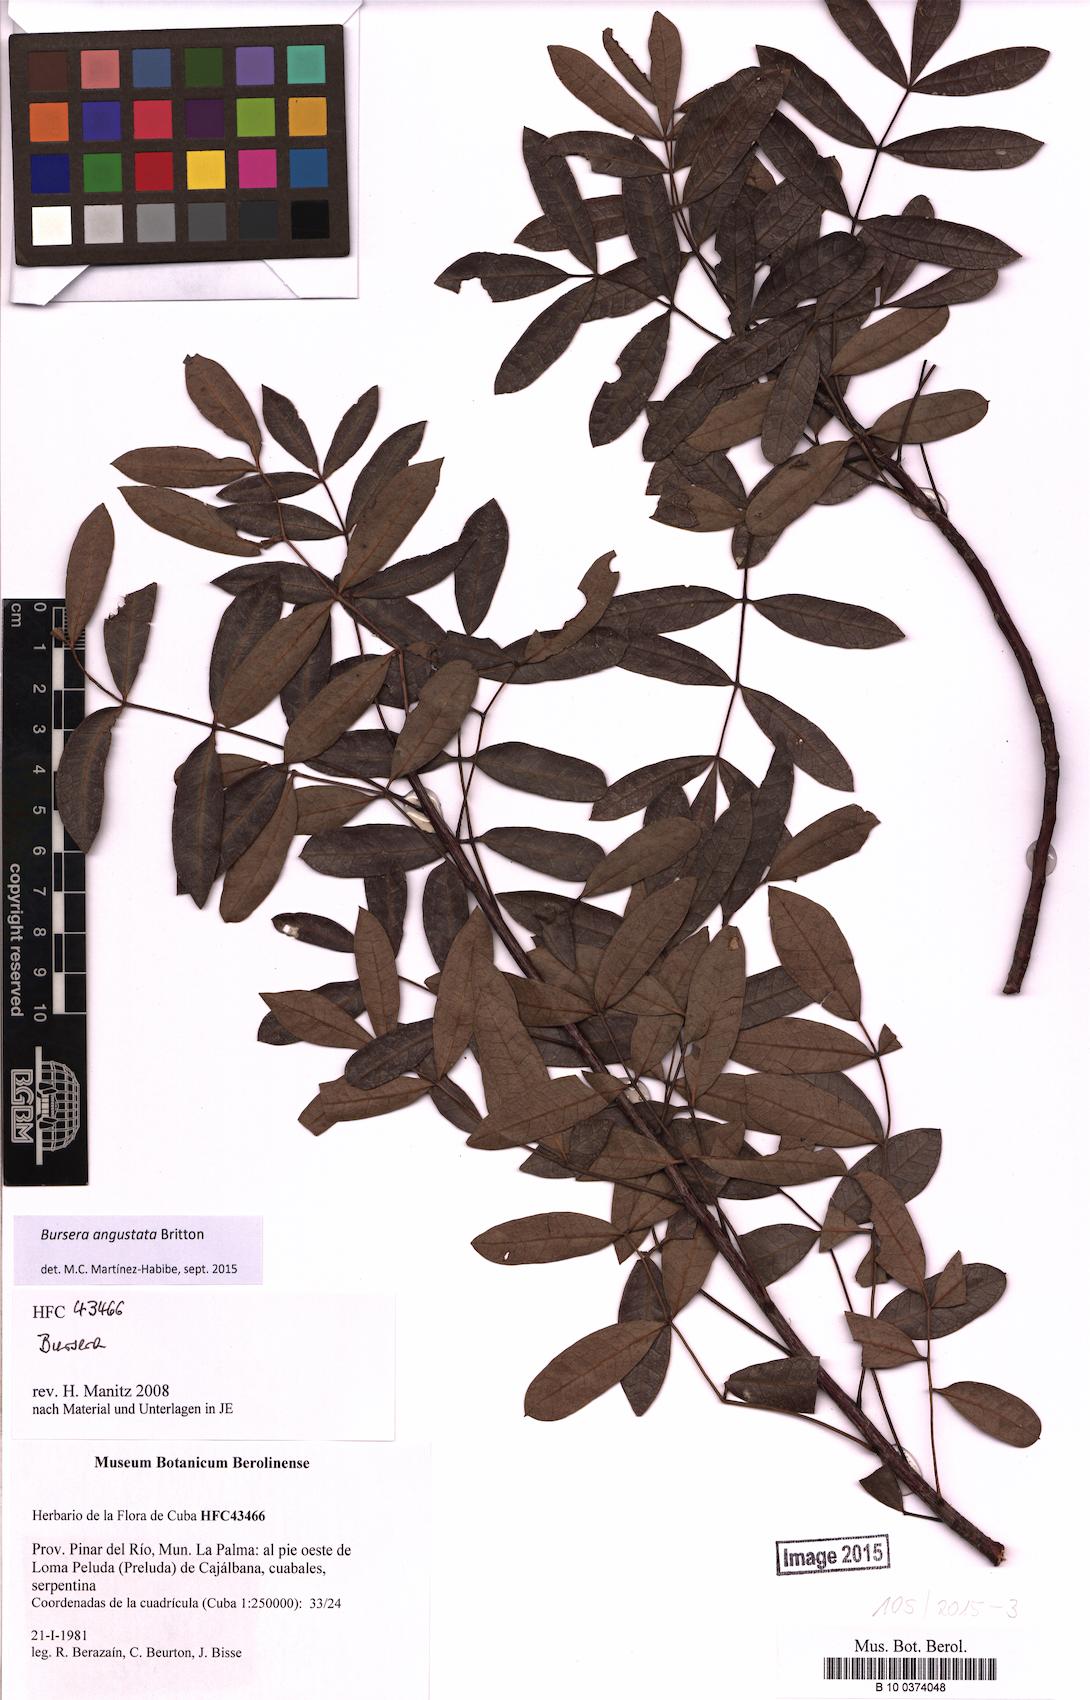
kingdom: Plantae
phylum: Tracheophyta
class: Magnoliopsida
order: Sapindales
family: Burseraceae
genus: Bursera
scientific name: Bursera angustata
